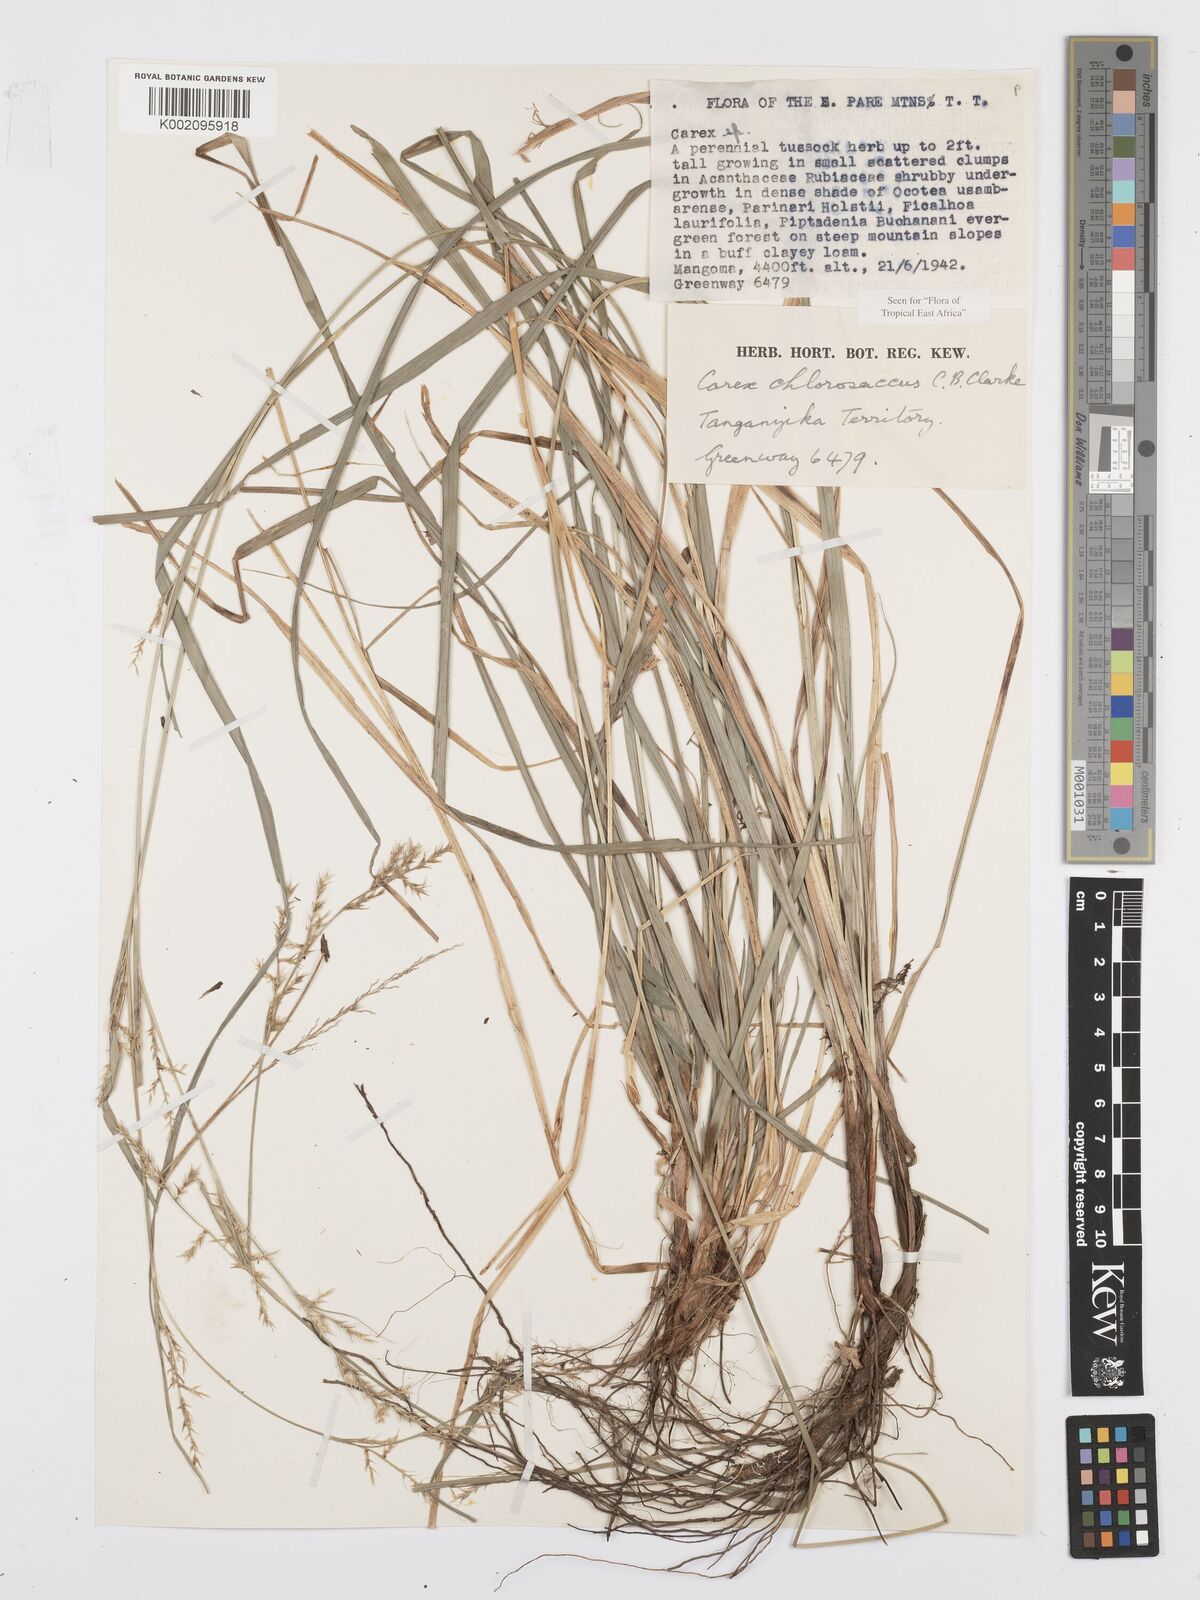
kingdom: Plantae
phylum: Tracheophyta
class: Liliopsida
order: Poales
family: Cyperaceae
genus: Carex
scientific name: Carex chlorosaccus
